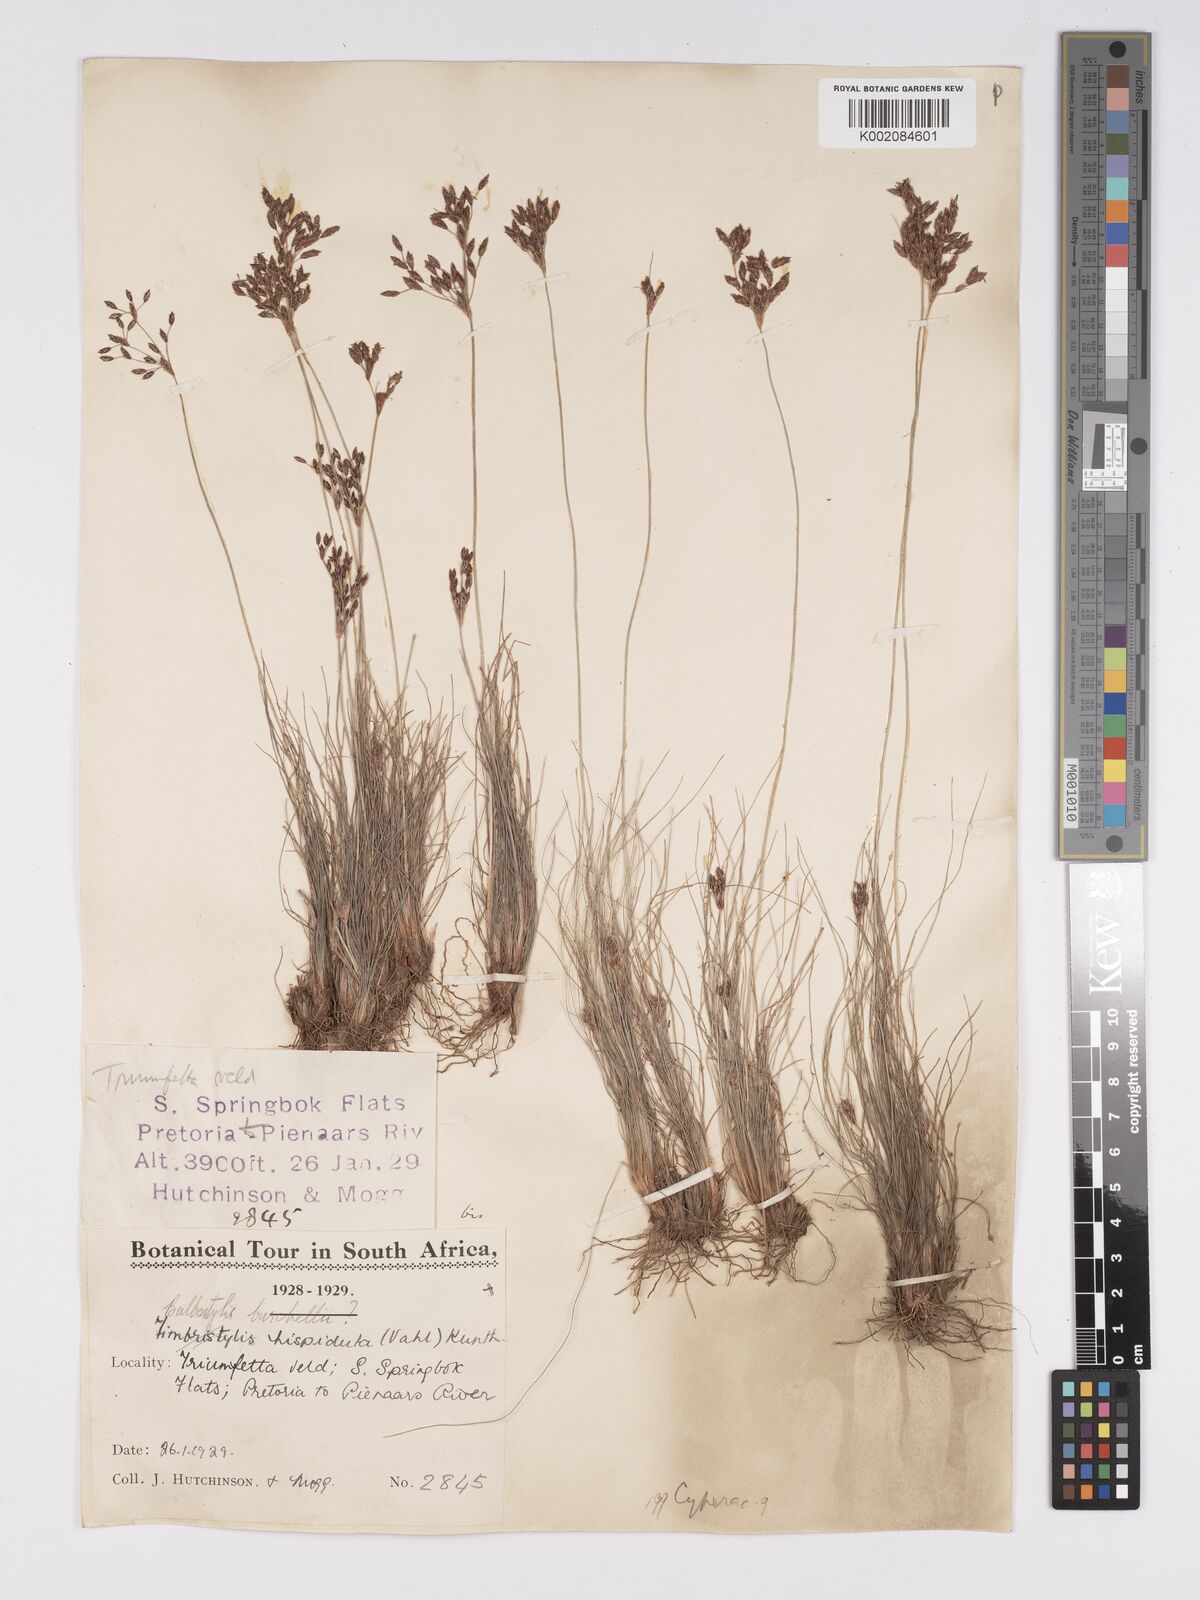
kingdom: Plantae
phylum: Tracheophyta
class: Liliopsida
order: Poales
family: Cyperaceae
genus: Bulbostylis
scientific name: Bulbostylis burchellii
